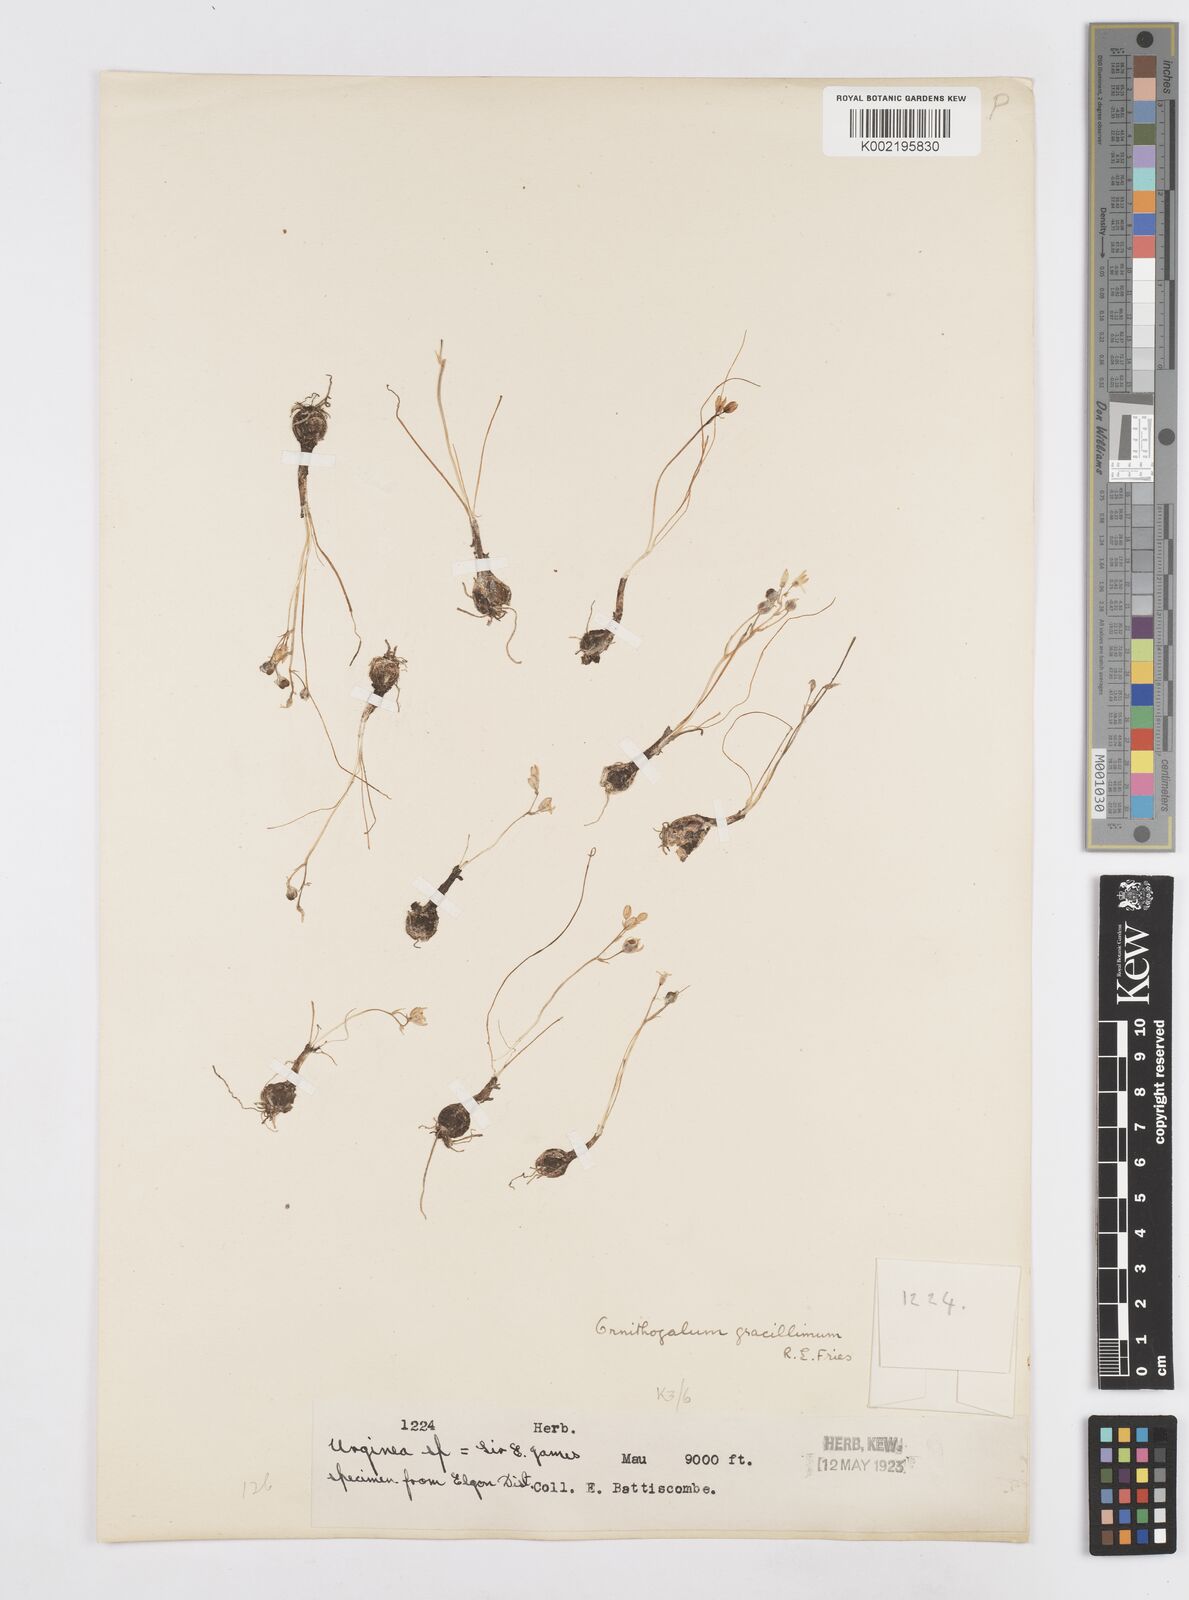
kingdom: Plantae
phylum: Tracheophyta
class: Liliopsida
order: Asparagales
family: Asparagaceae
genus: Ornithogalum
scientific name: Ornithogalum gracillimum
